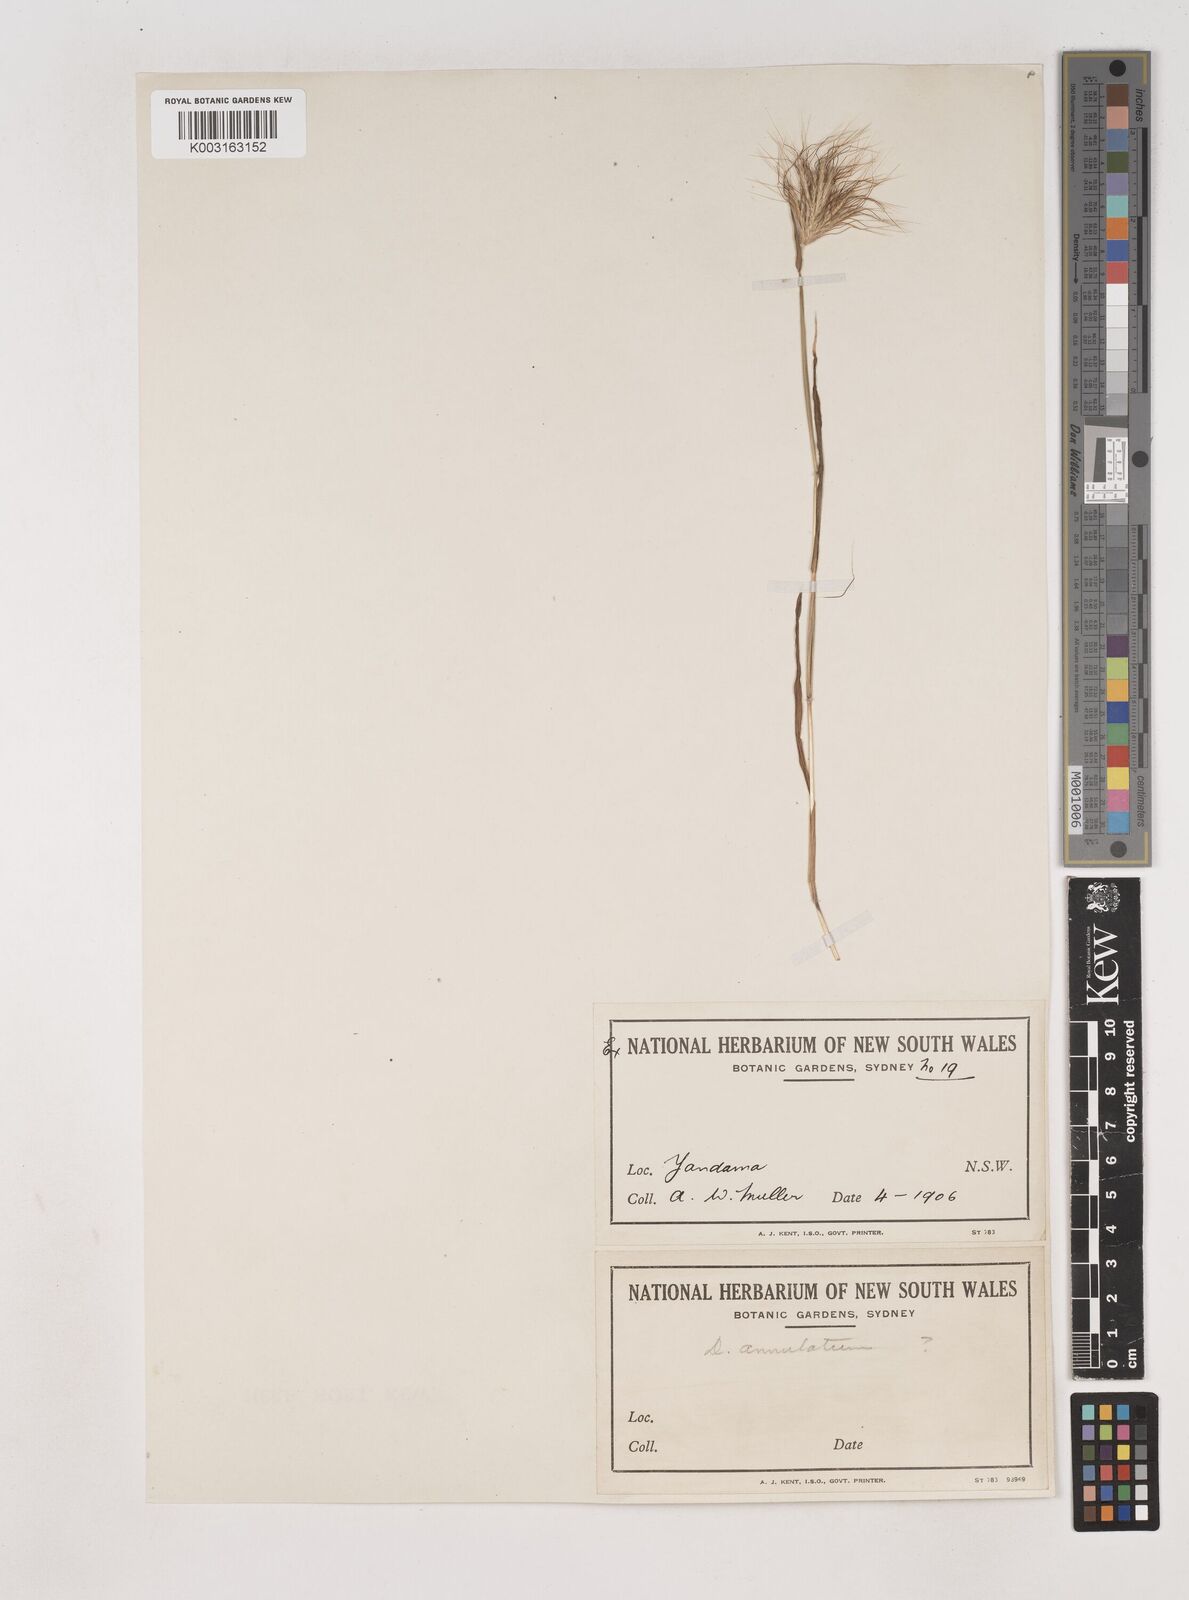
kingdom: Plantae
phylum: Tracheophyta
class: Liliopsida
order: Poales
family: Poaceae
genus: Dichanthium
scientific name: Dichanthium sericeum
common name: Silky bluestem
